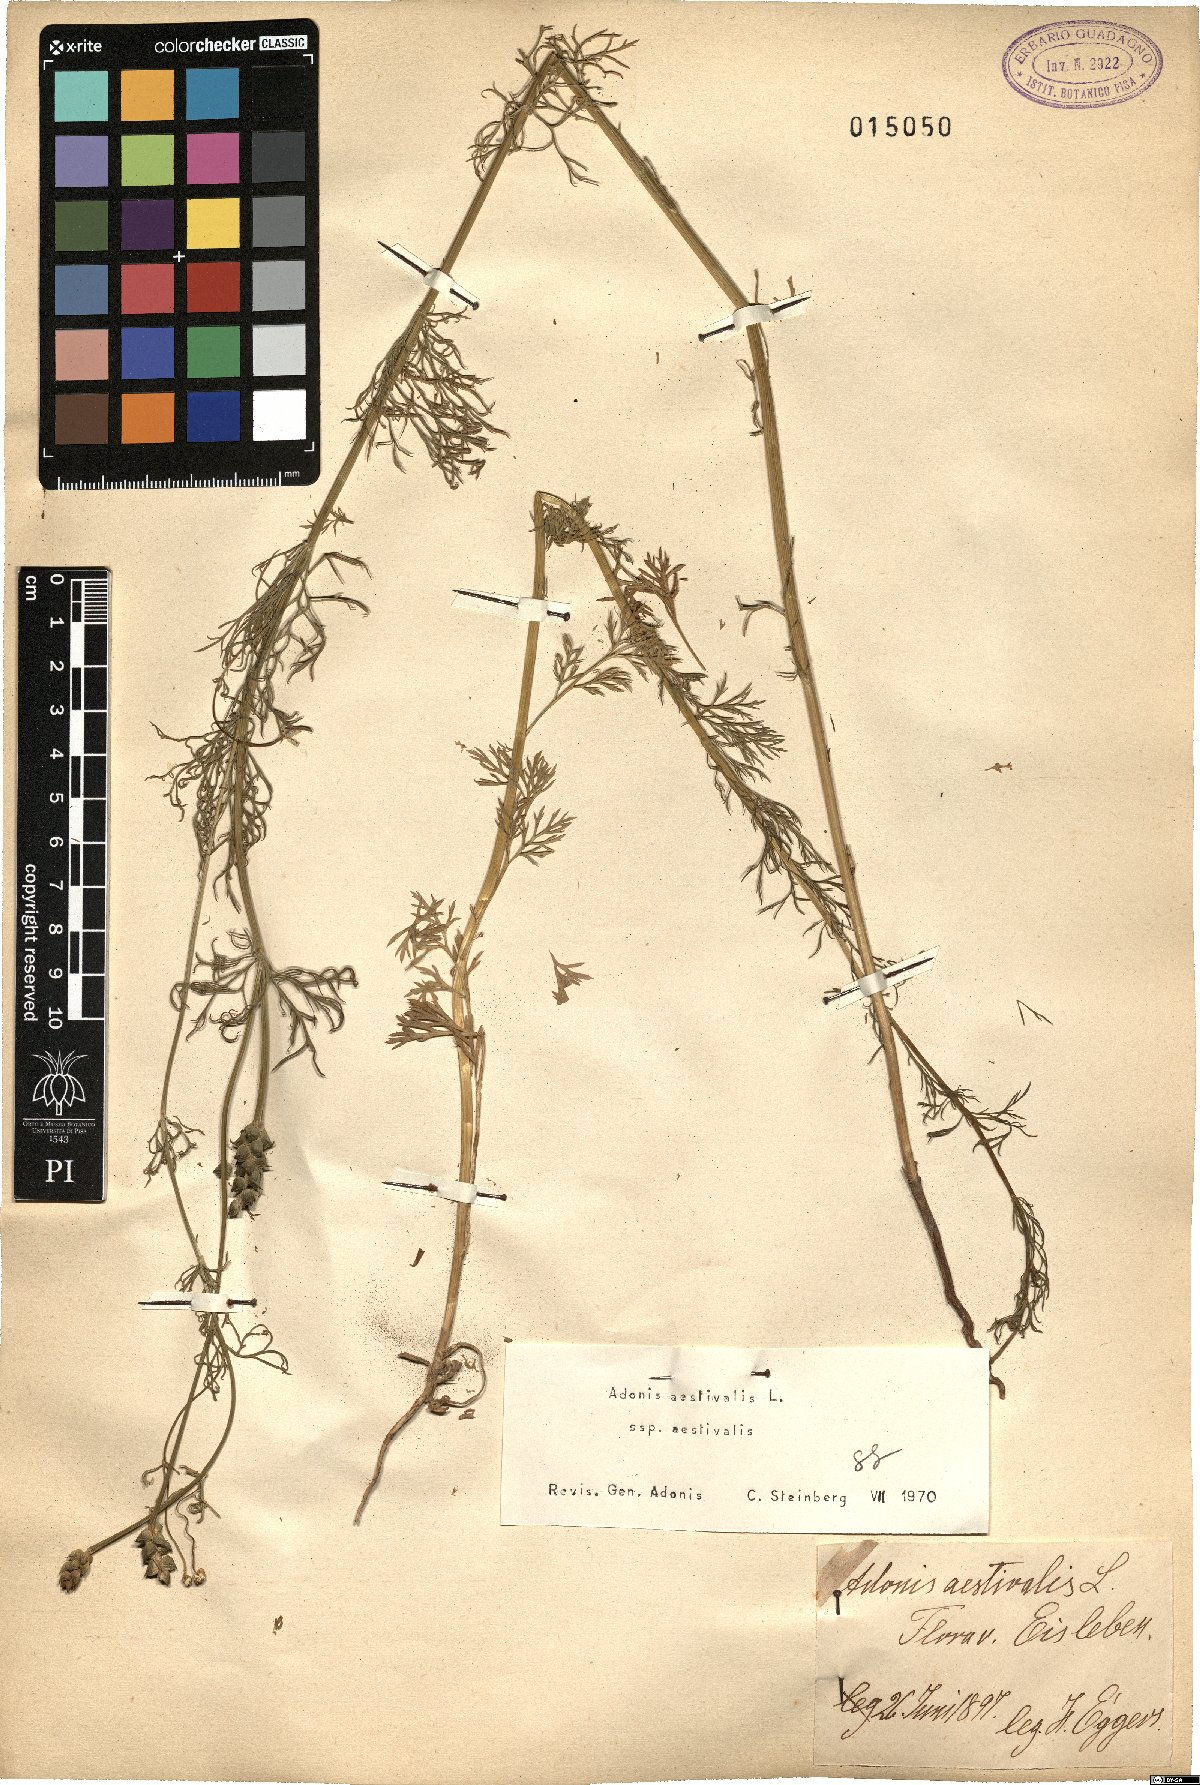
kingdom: Plantae
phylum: Tracheophyta
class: Magnoliopsida
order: Ranunculales
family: Ranunculaceae
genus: Adonis
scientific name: Adonis aestivalis
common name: Summer pheasant's-eye
